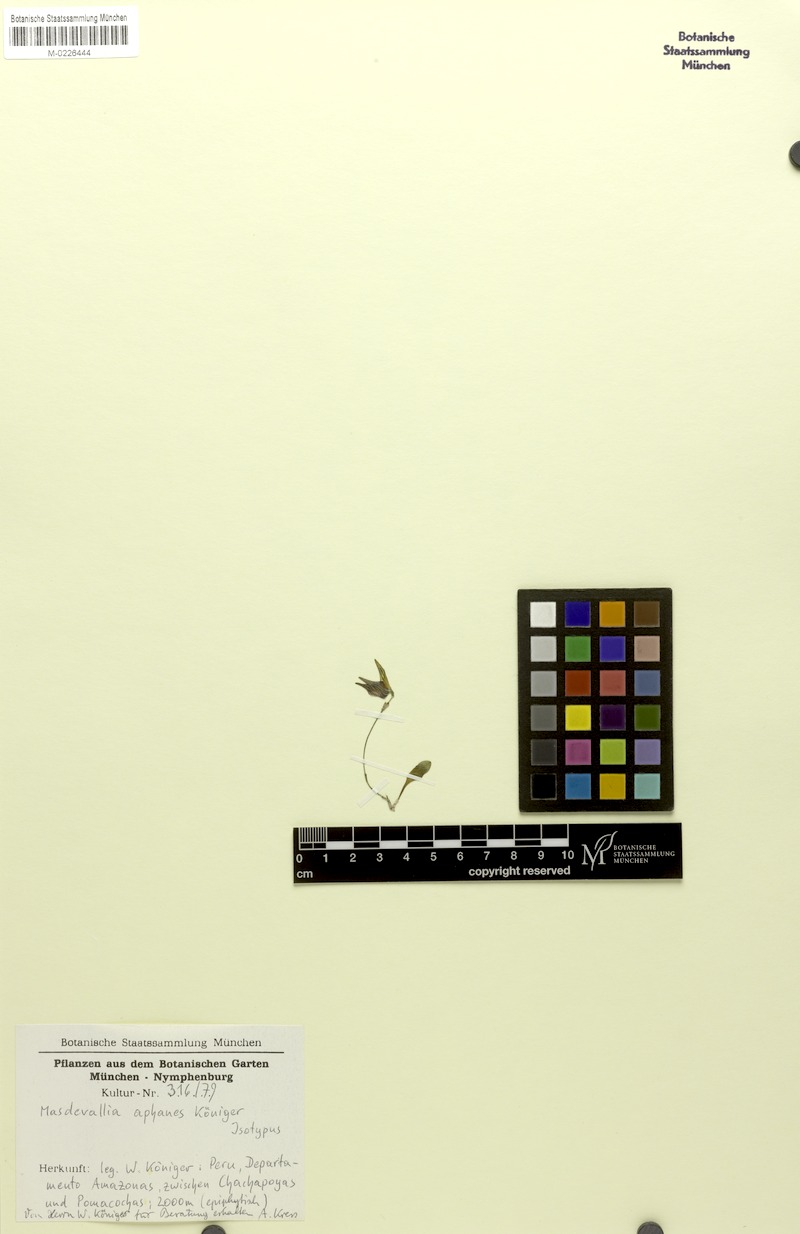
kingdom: Plantae
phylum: Tracheophyta
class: Liliopsida
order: Asparagales
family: Orchidaceae
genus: Masdevallia
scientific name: Masdevallia aphanes
